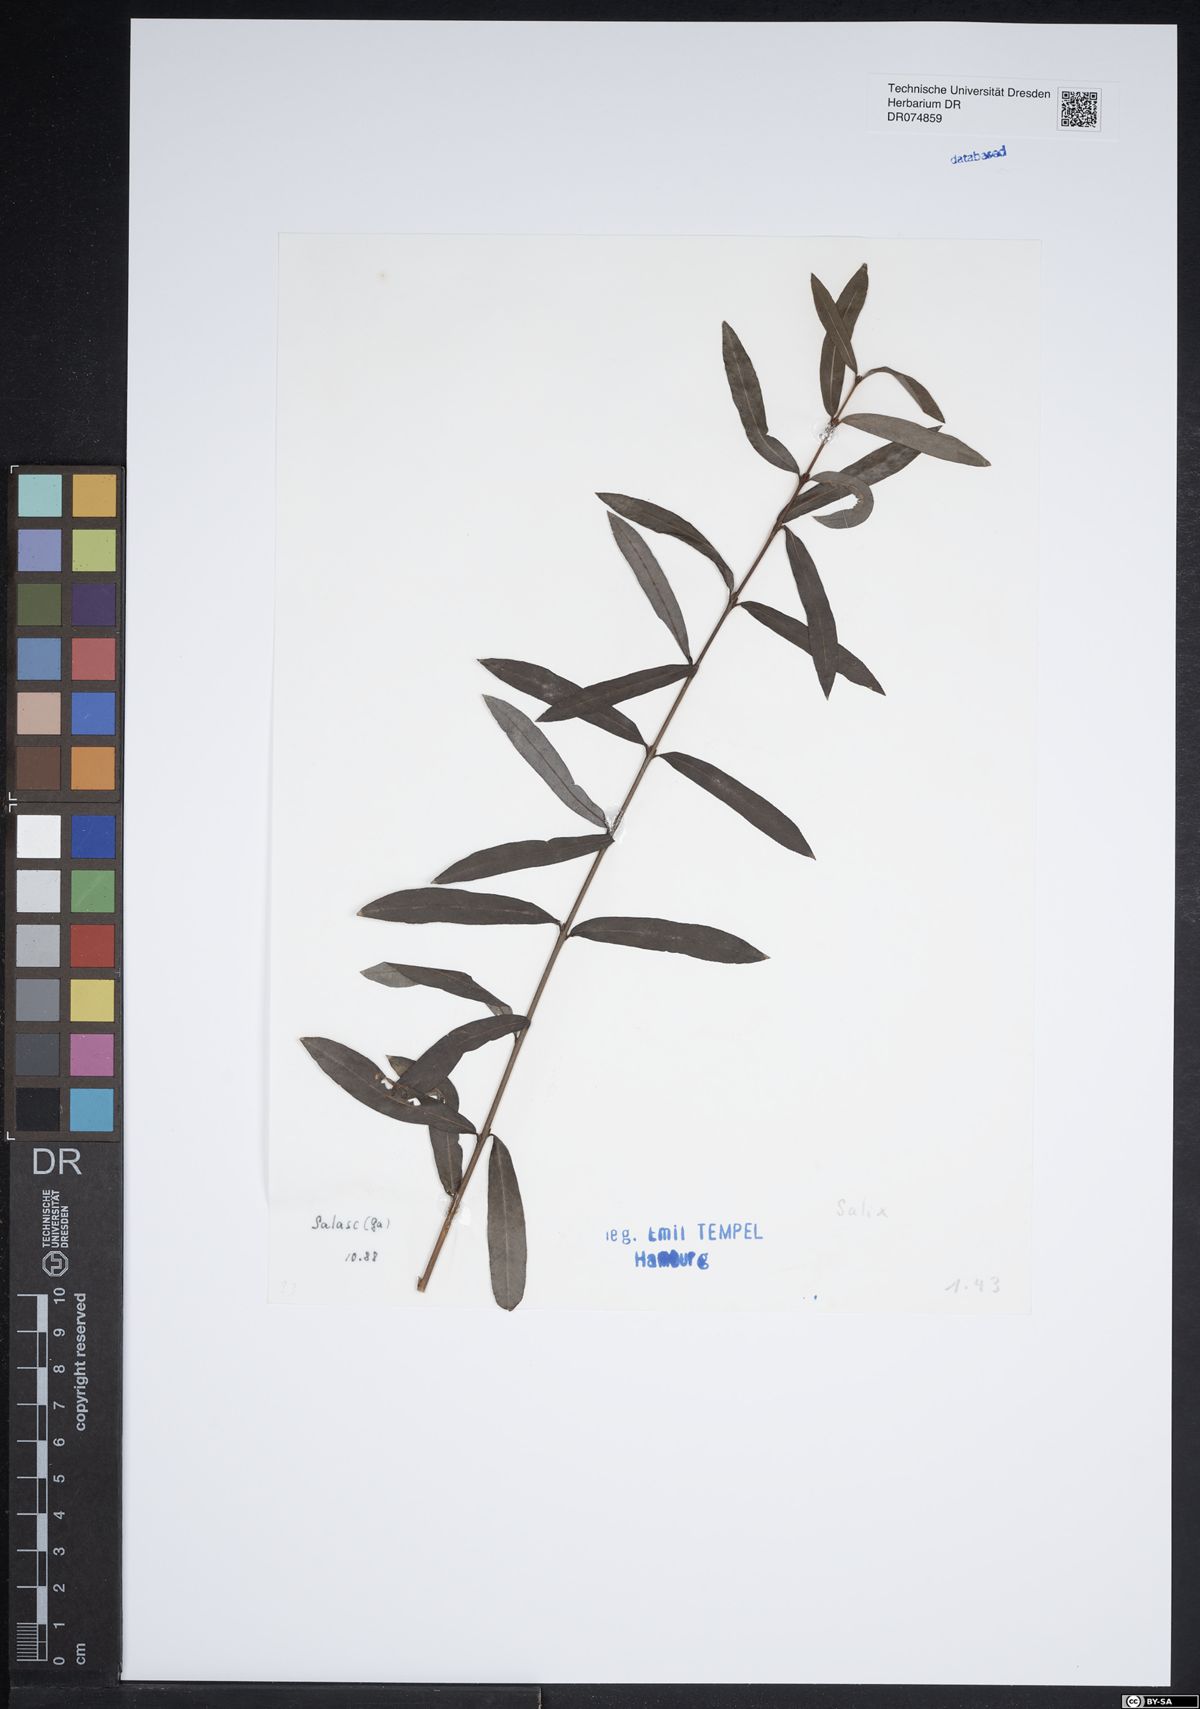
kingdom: Plantae
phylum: Tracheophyta
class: Magnoliopsida
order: Malpighiales
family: Salicaceae
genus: Salix
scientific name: Salix
